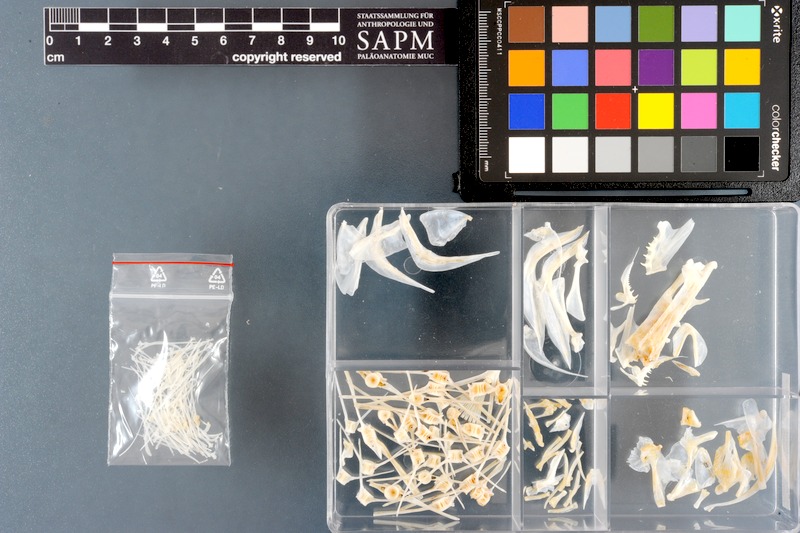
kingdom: Animalia
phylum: Chordata
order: Pleuronectiformes
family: Paralichthyidae
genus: Pseudorhombus
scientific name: Pseudorhombus arsius
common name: Largetooth flounder
